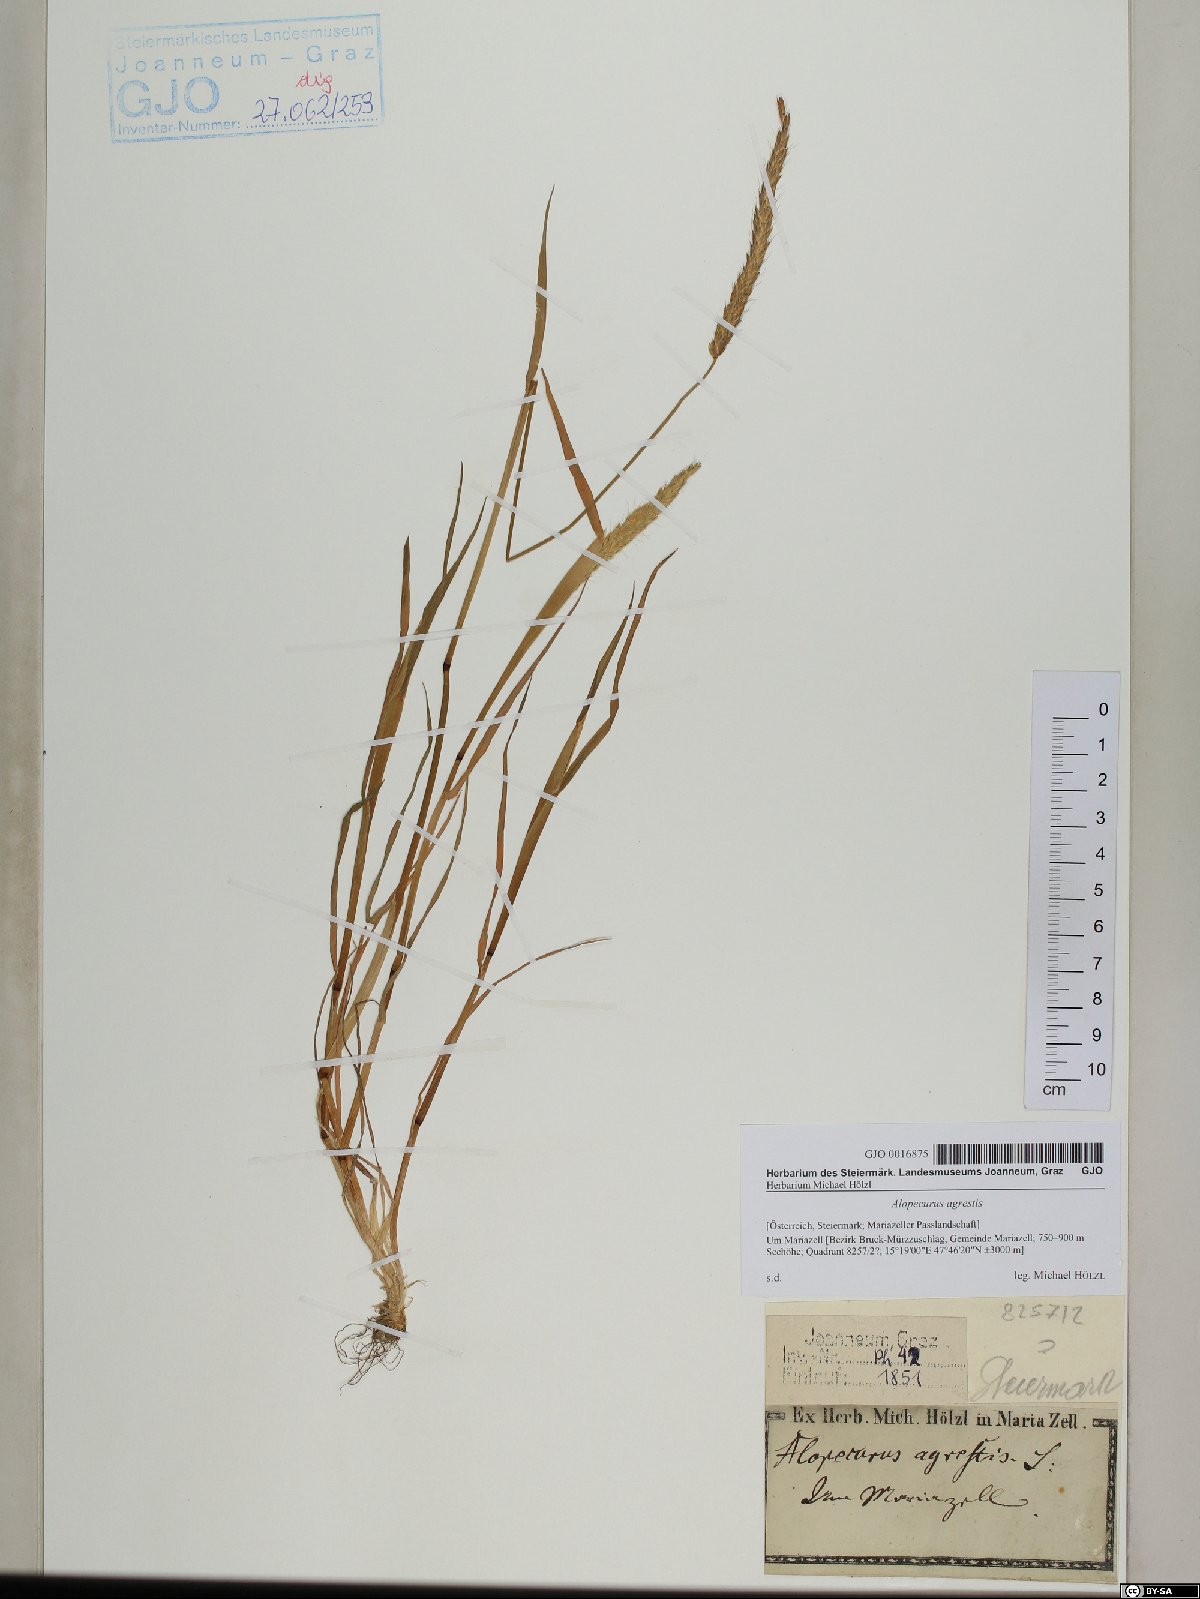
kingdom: Plantae
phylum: Tracheophyta
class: Liliopsida
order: Poales
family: Poaceae
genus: Alopecurus
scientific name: Alopecurus myosuroides
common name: Black-grass
